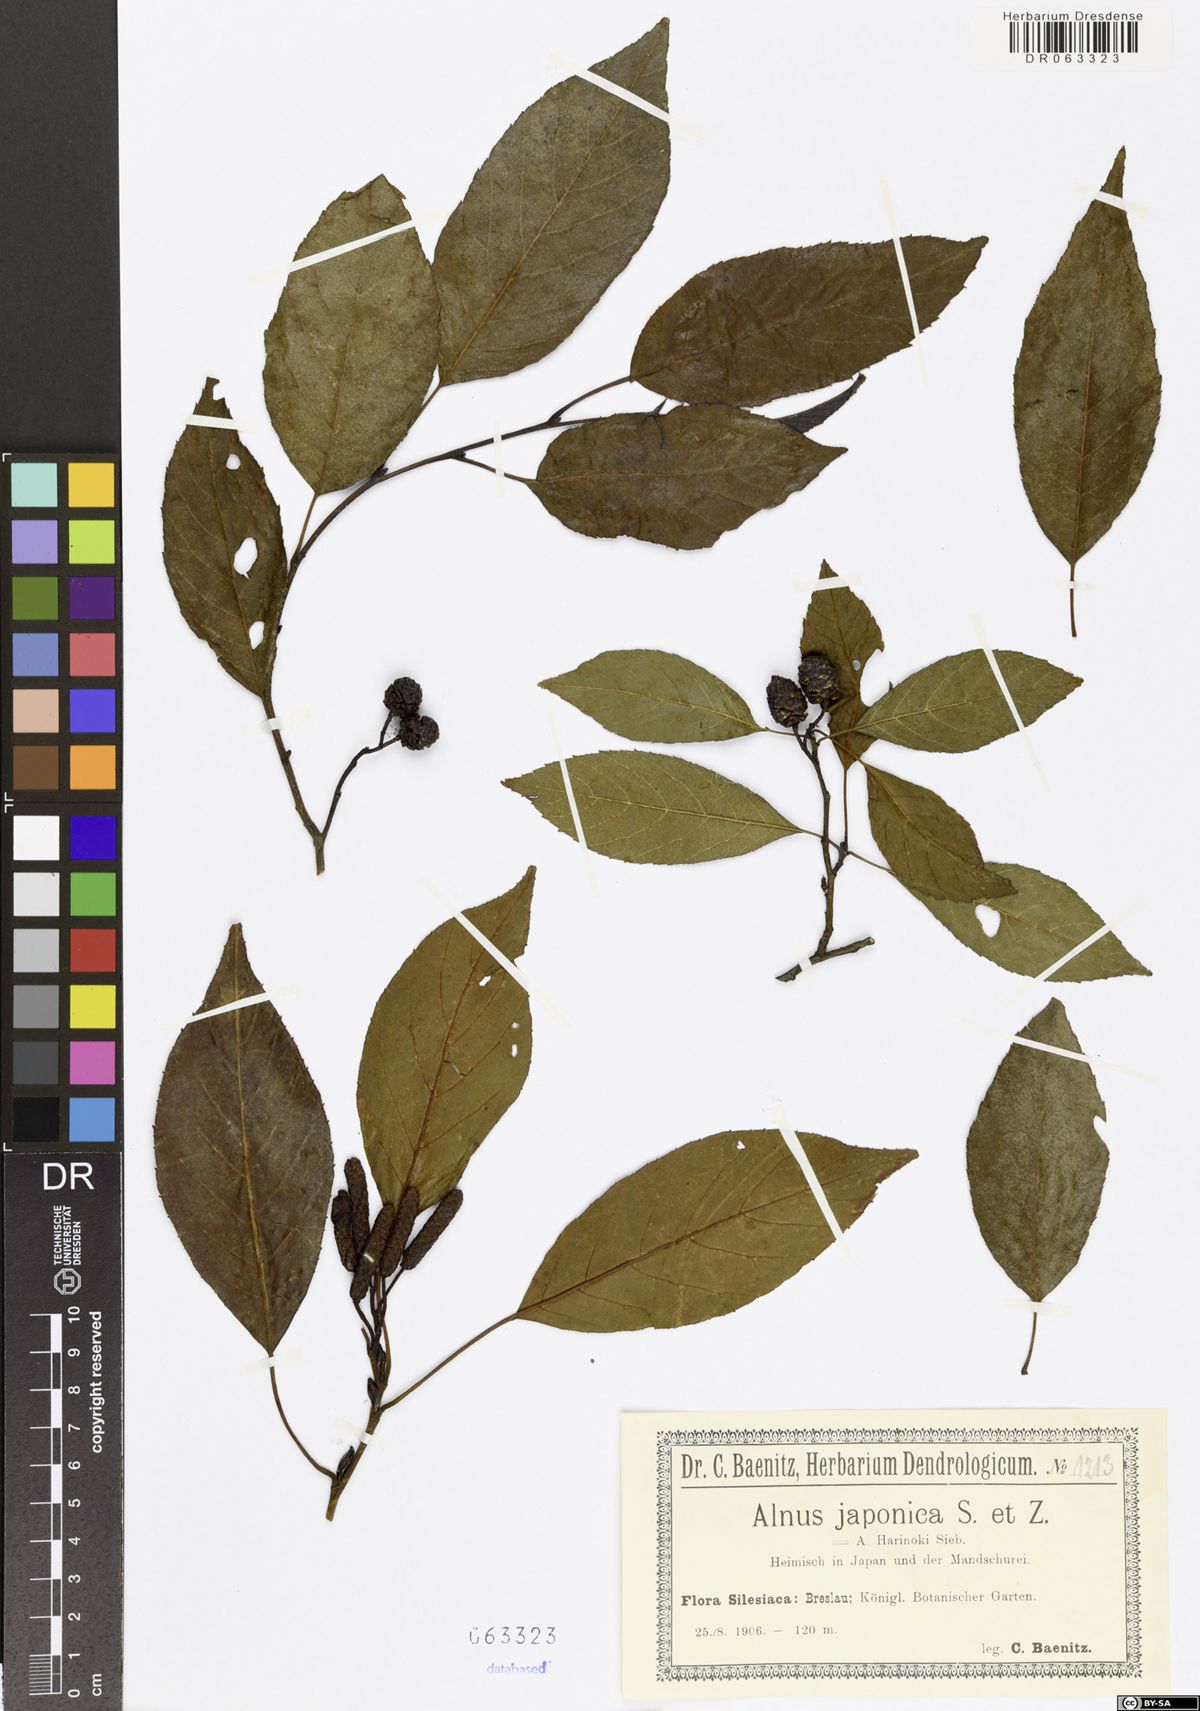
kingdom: Plantae
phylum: Tracheophyta
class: Magnoliopsida
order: Fagales
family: Betulaceae
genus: Alnus
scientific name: Alnus japonica
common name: Japanese alder
